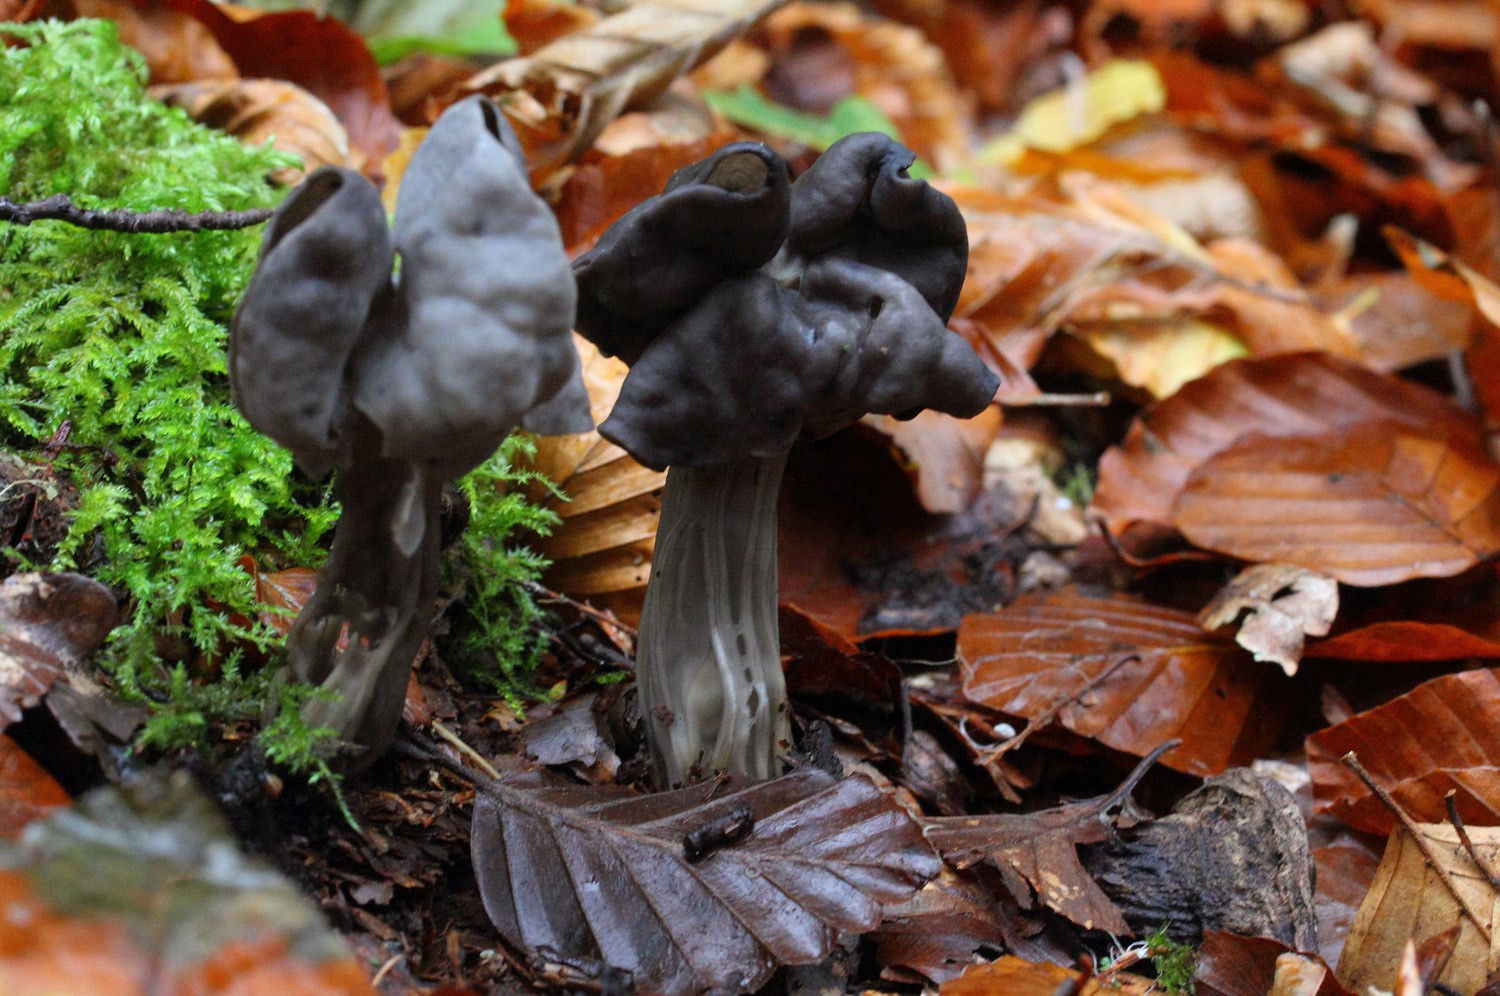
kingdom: Fungi
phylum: Ascomycota
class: Pezizomycetes
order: Pezizales
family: Helvellaceae
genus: Helvella
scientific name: Helvella lacunosa
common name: grubet foldhat
